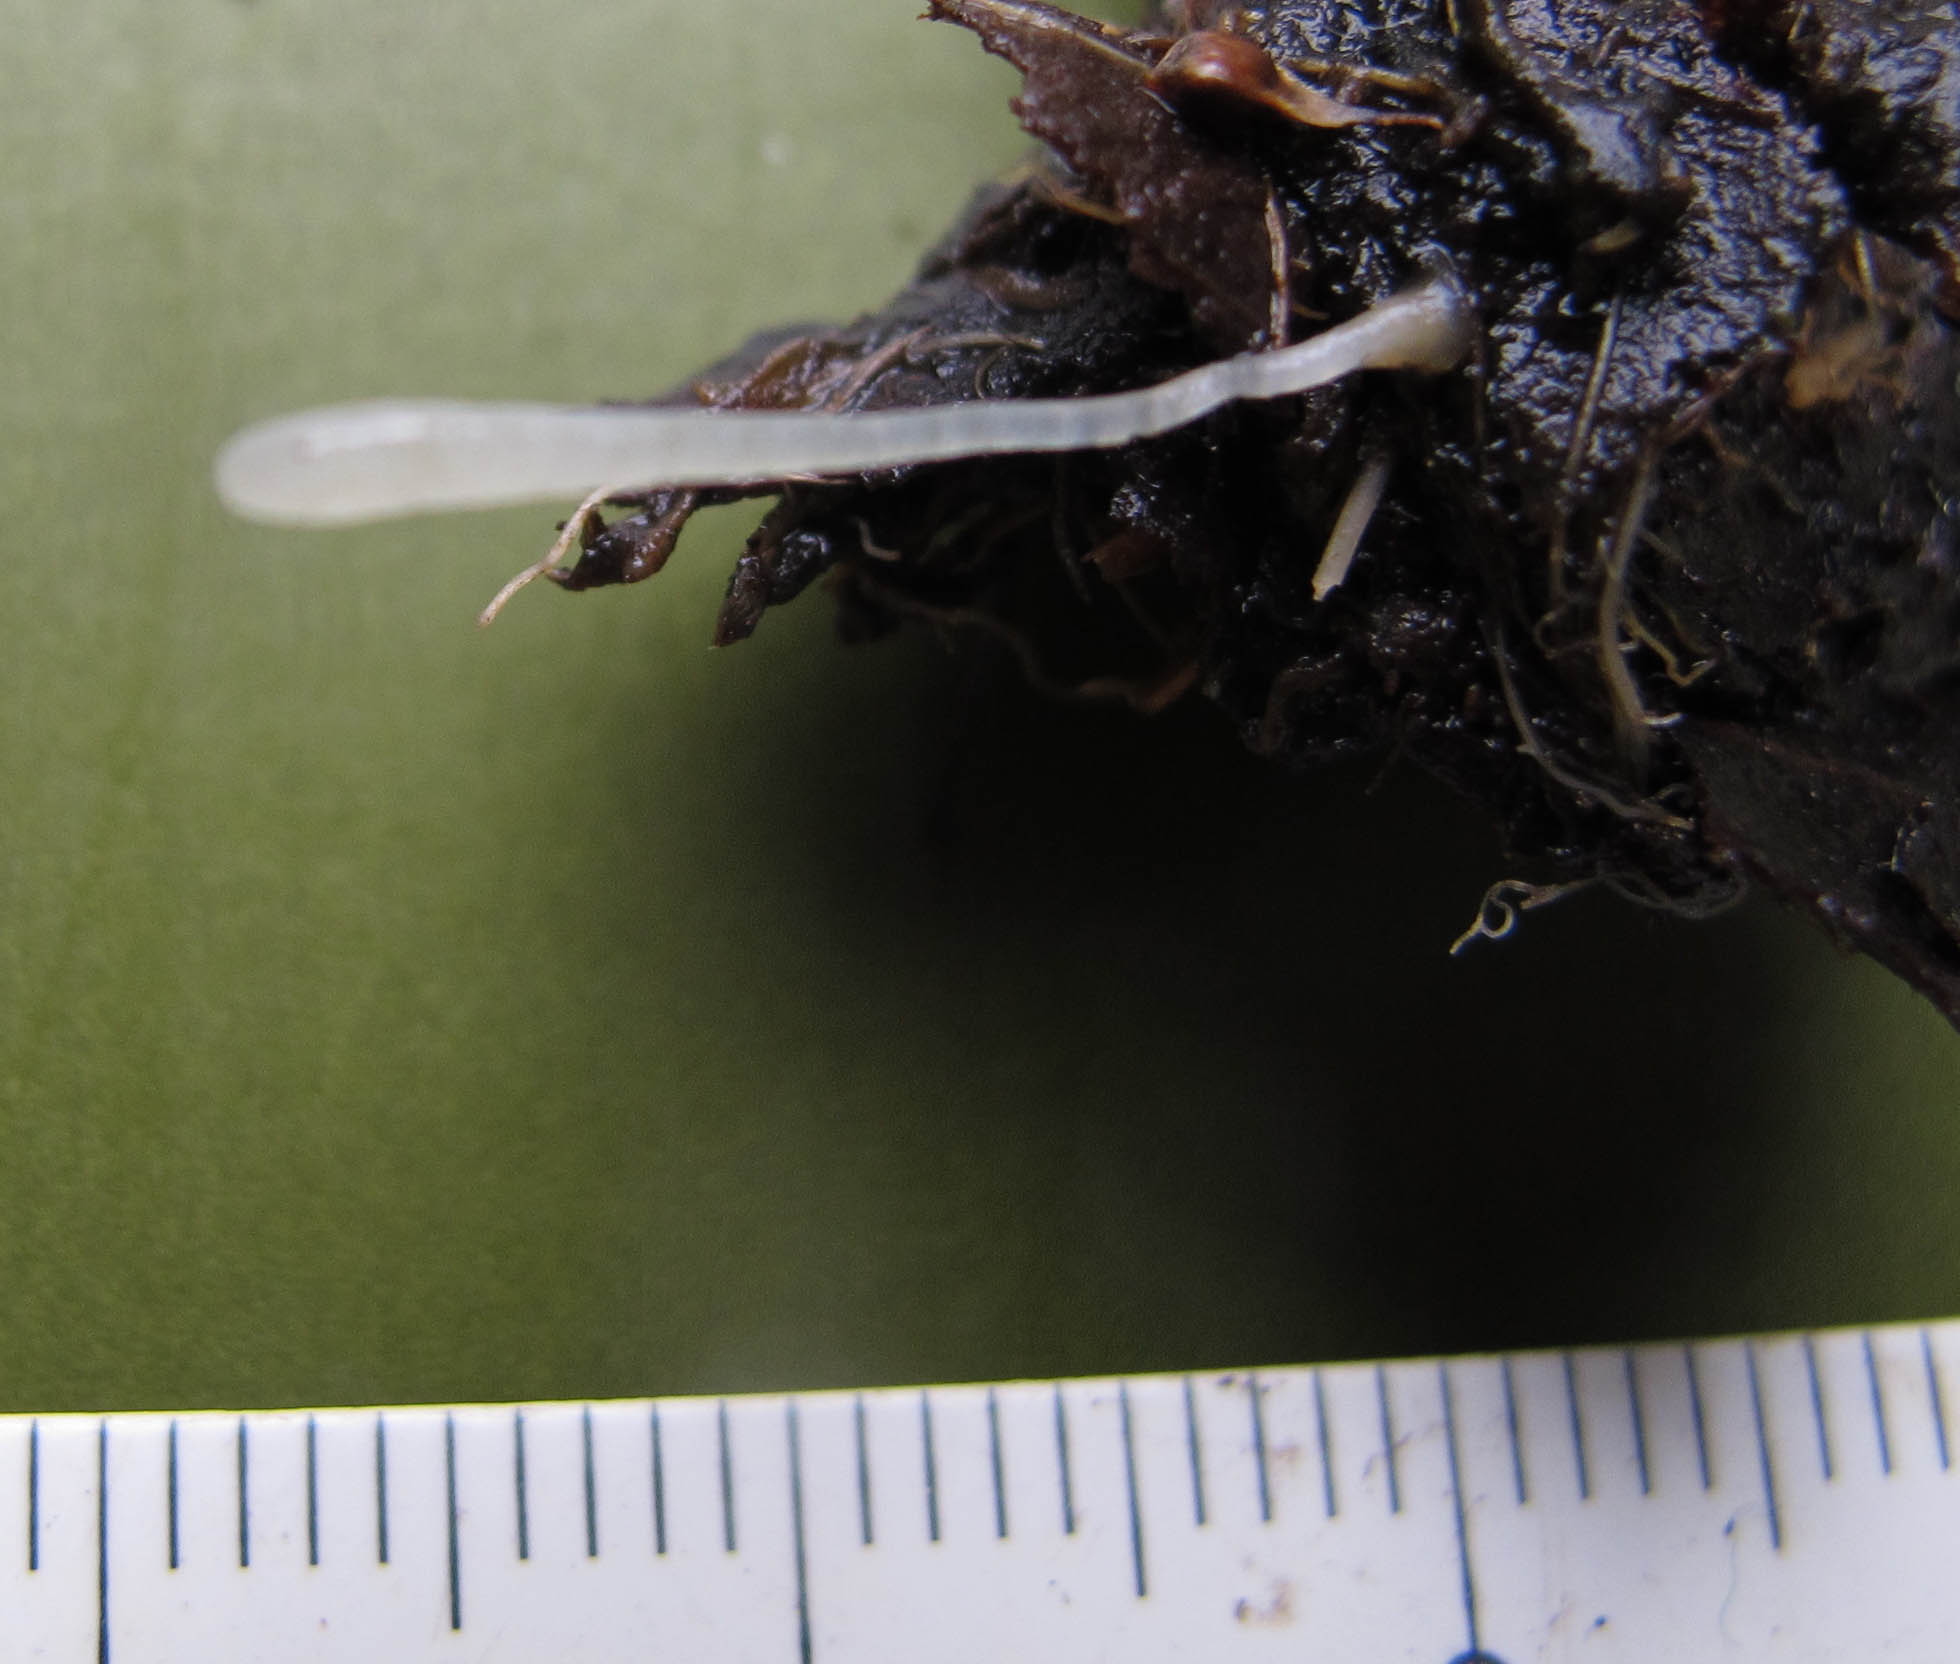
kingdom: Fungi
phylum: Basidiomycota
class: Agaricomycetes
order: Agaricales
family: Clavariaceae
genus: Clavaria
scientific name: Clavaria
